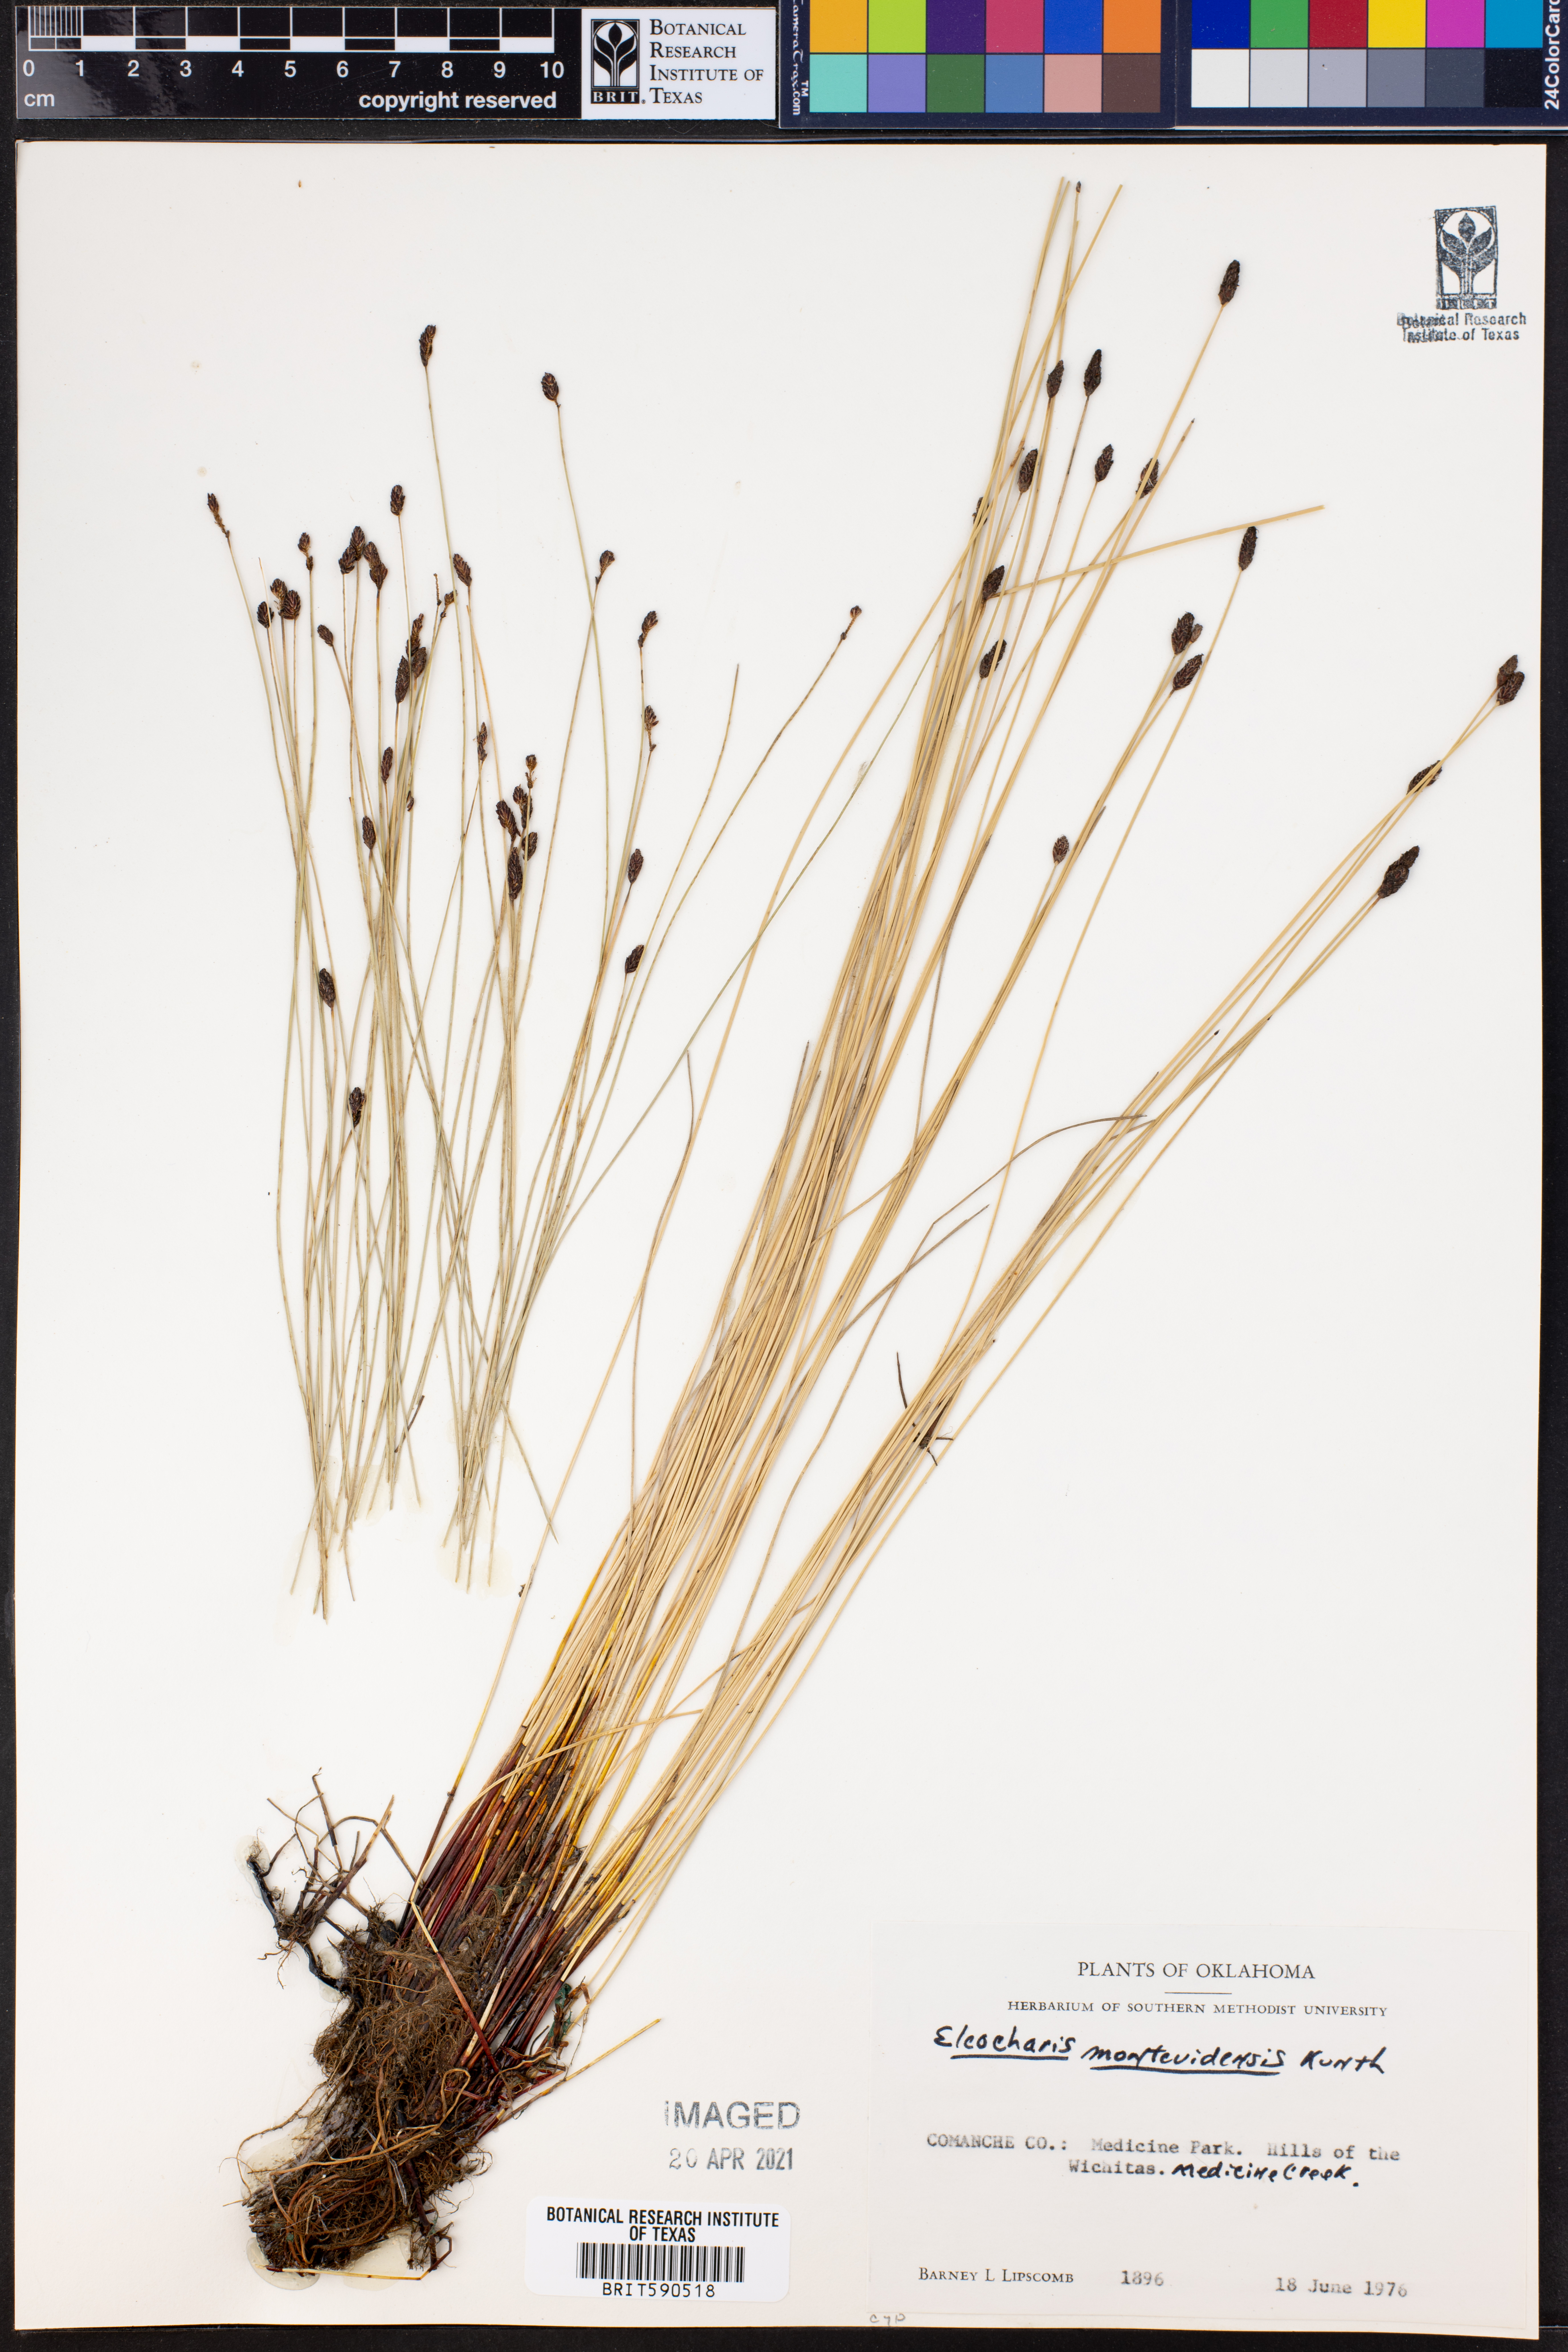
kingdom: Plantae
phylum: Tracheophyta
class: Liliopsida
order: Poales
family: Cyperaceae
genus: Eleocharis
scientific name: Eleocharis montana
